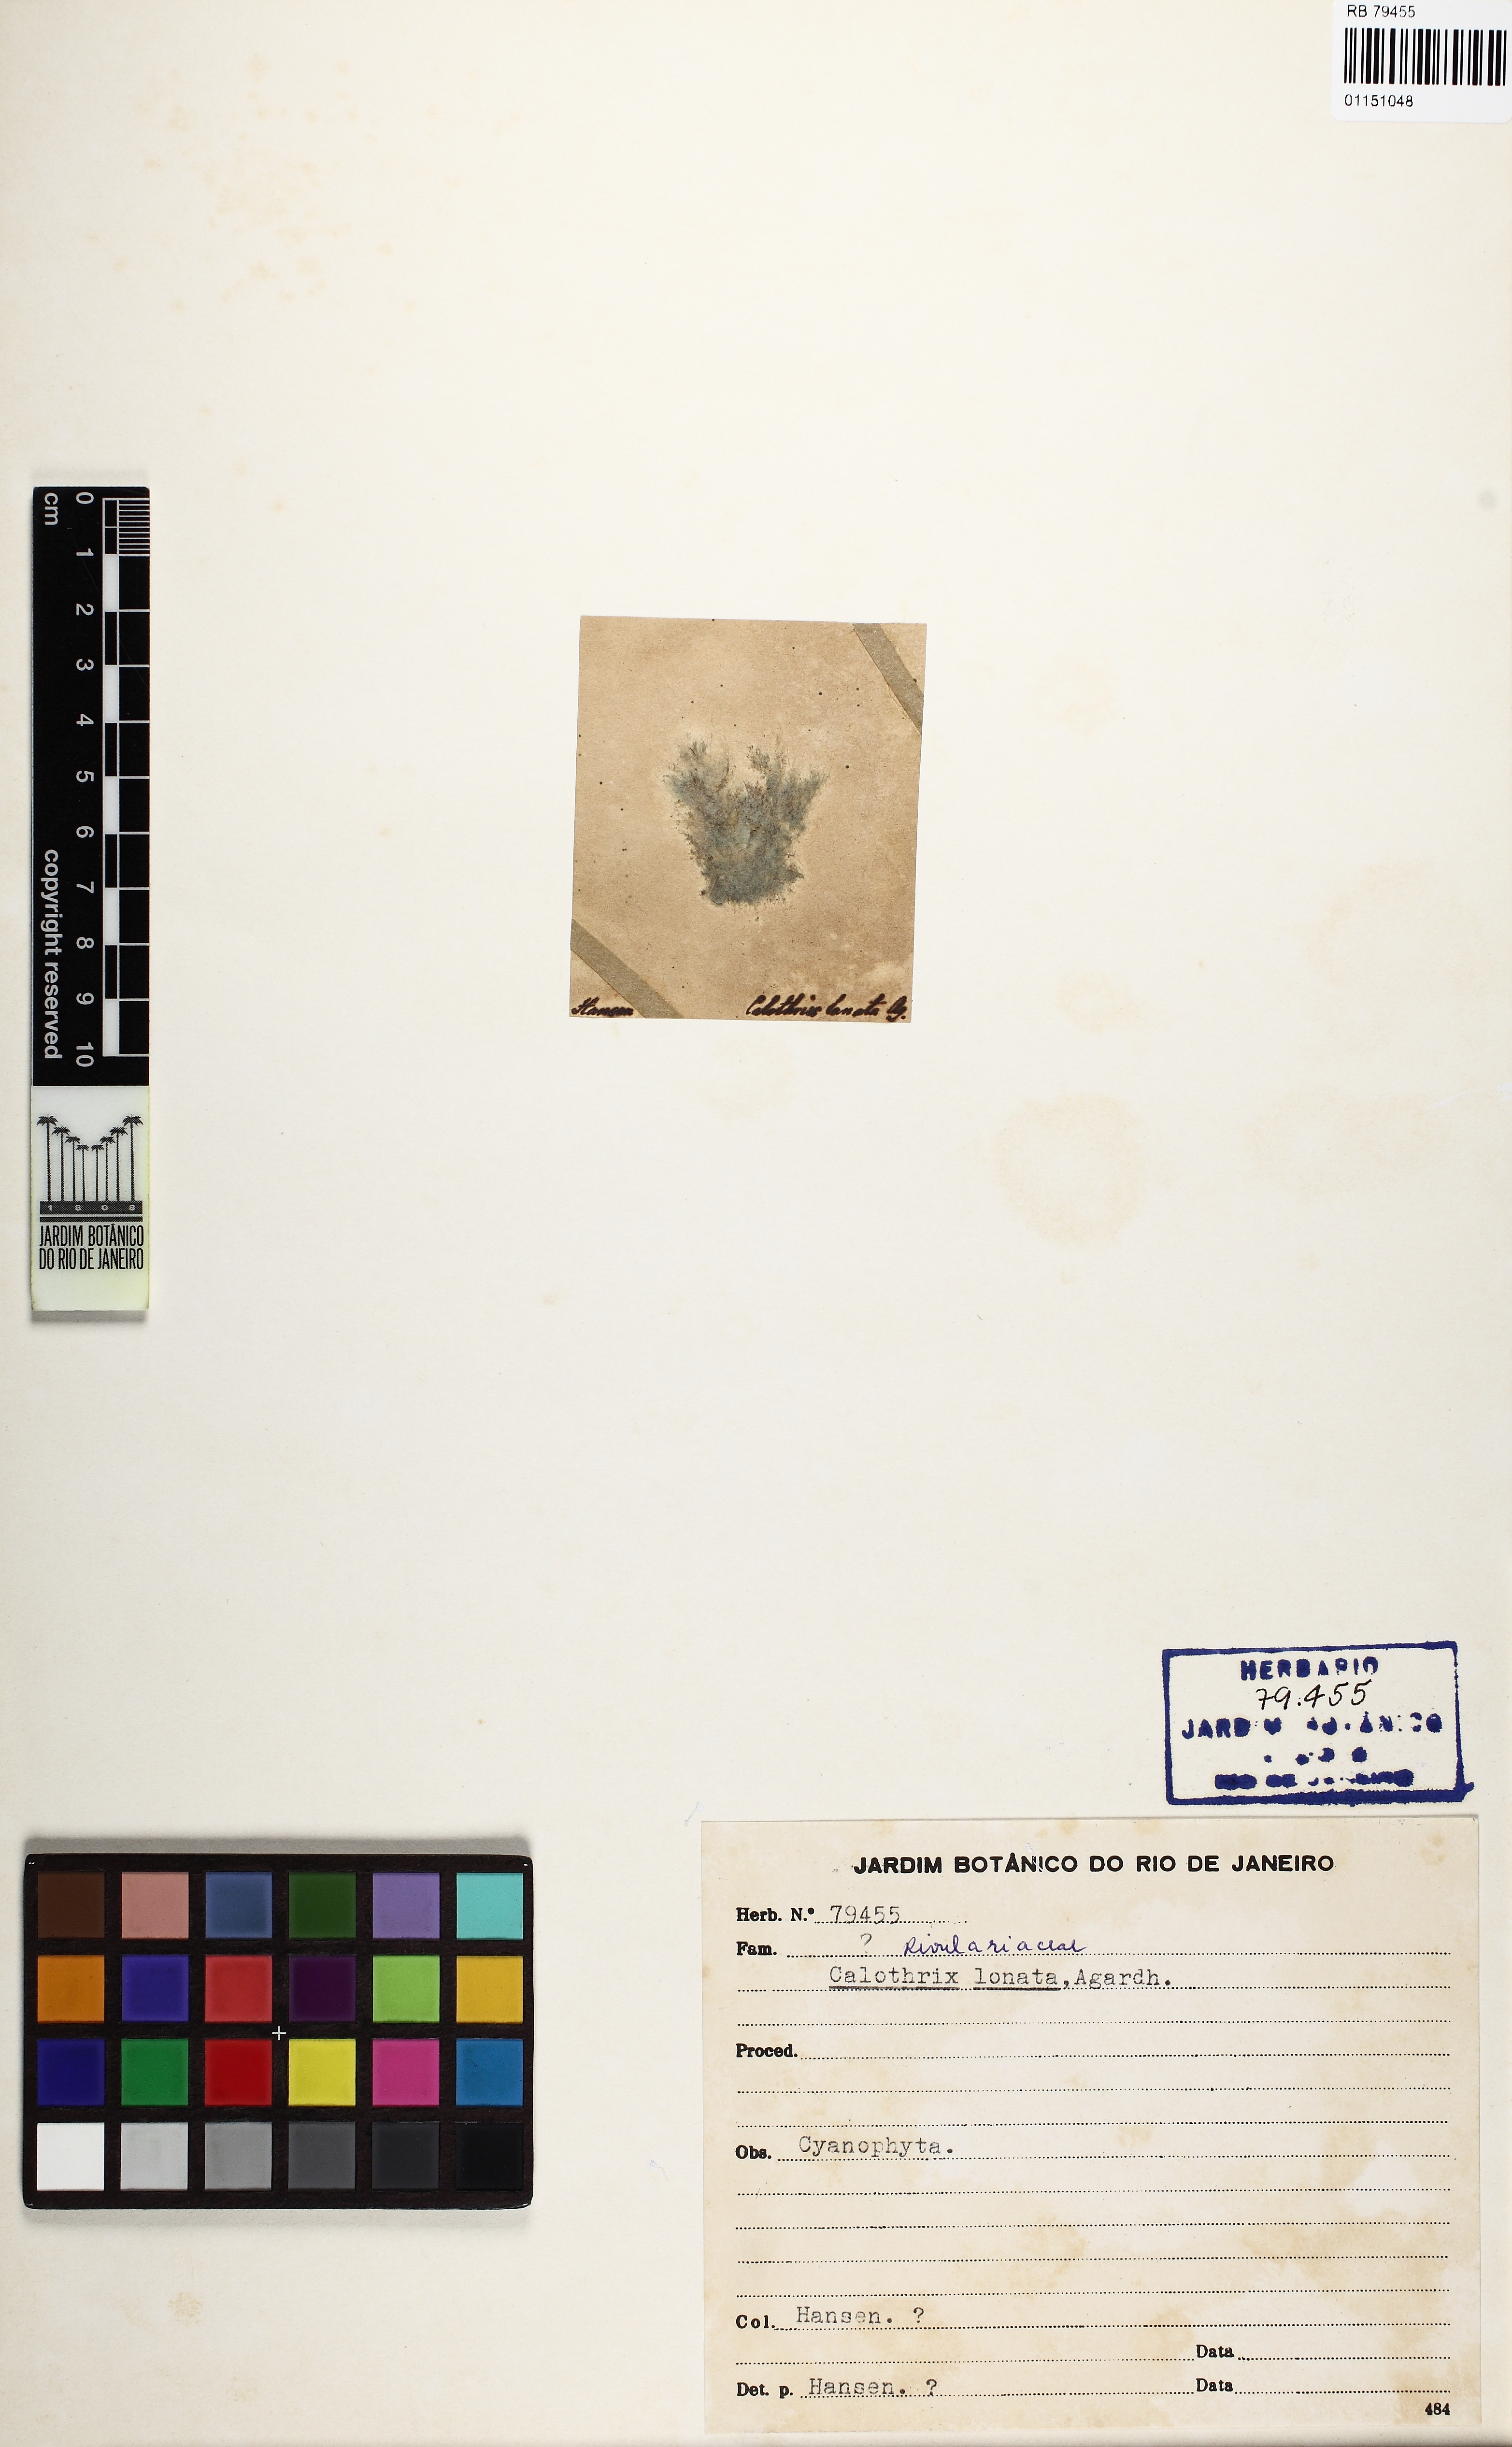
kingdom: Bacteria
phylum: Cyanobacteria
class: Cyanobacteriia
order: Cyanobacteriales
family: Rivulariaceae
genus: Calothrix
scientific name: Calothrix
